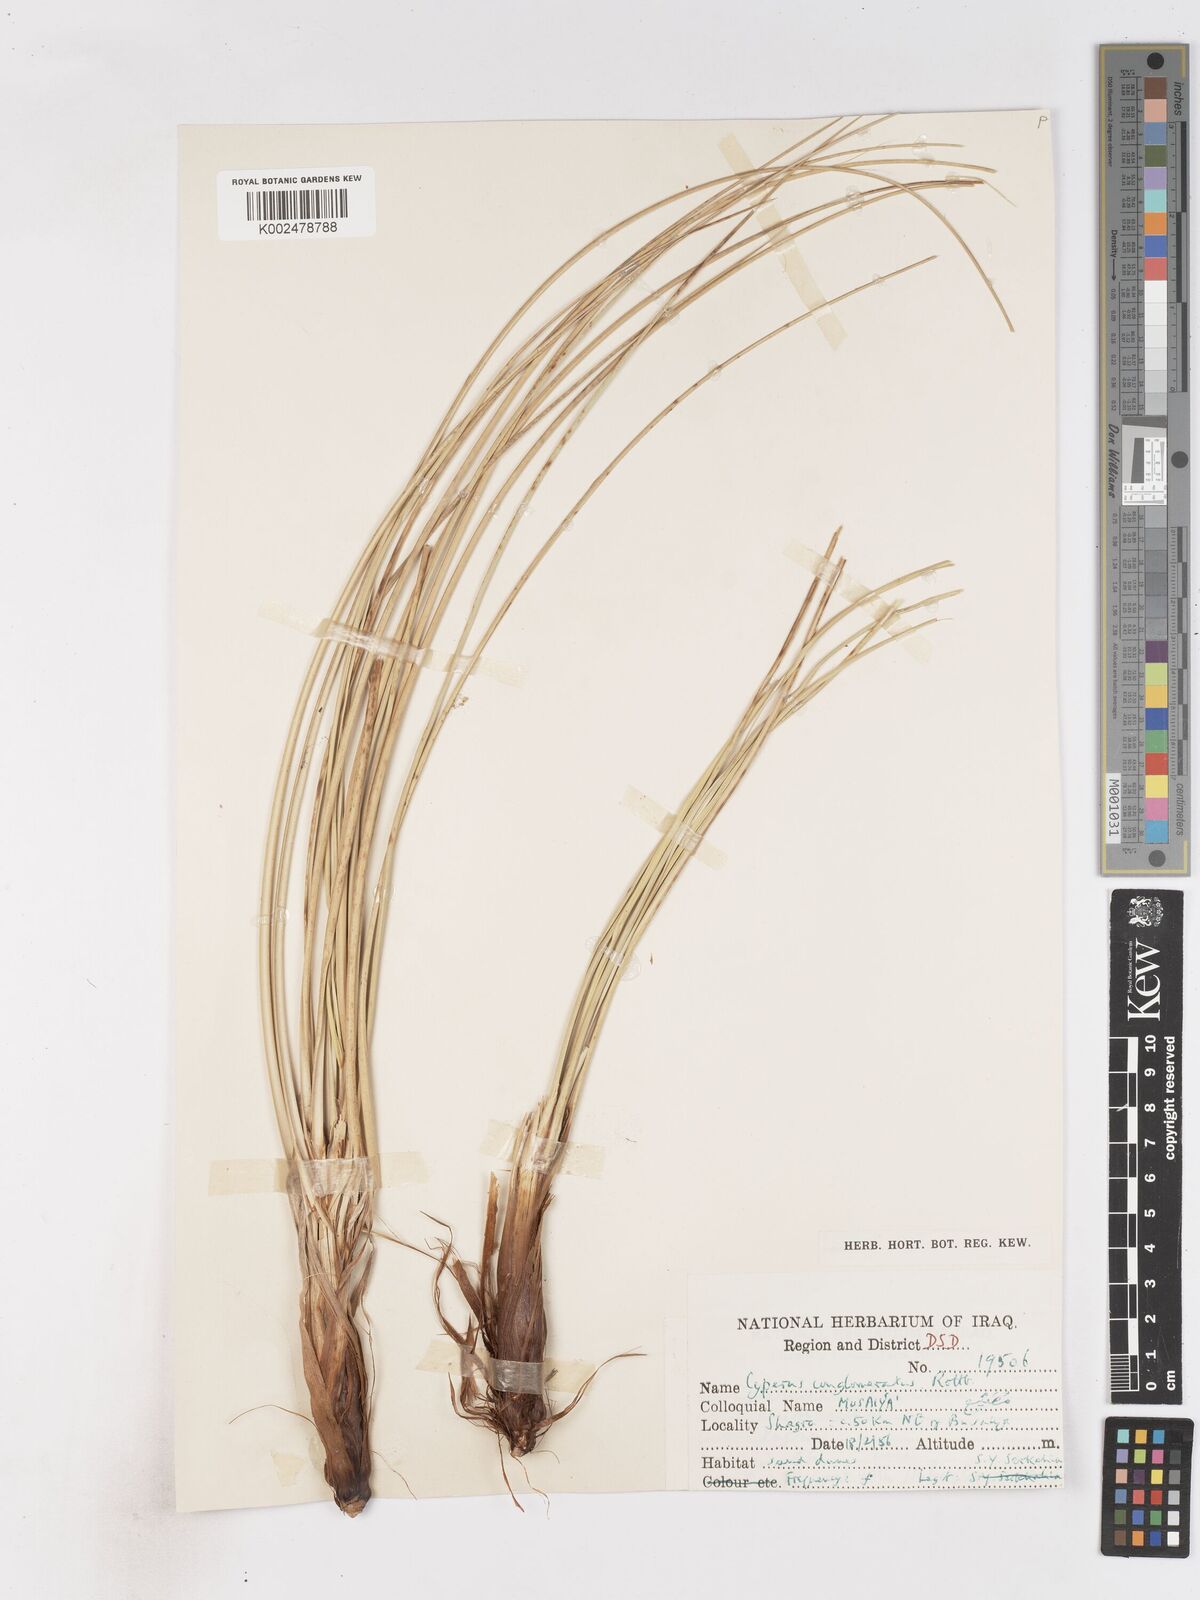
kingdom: Plantae
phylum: Tracheophyta
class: Liliopsida
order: Poales
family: Cyperaceae
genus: Cyperus
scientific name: Cyperus aucheri
